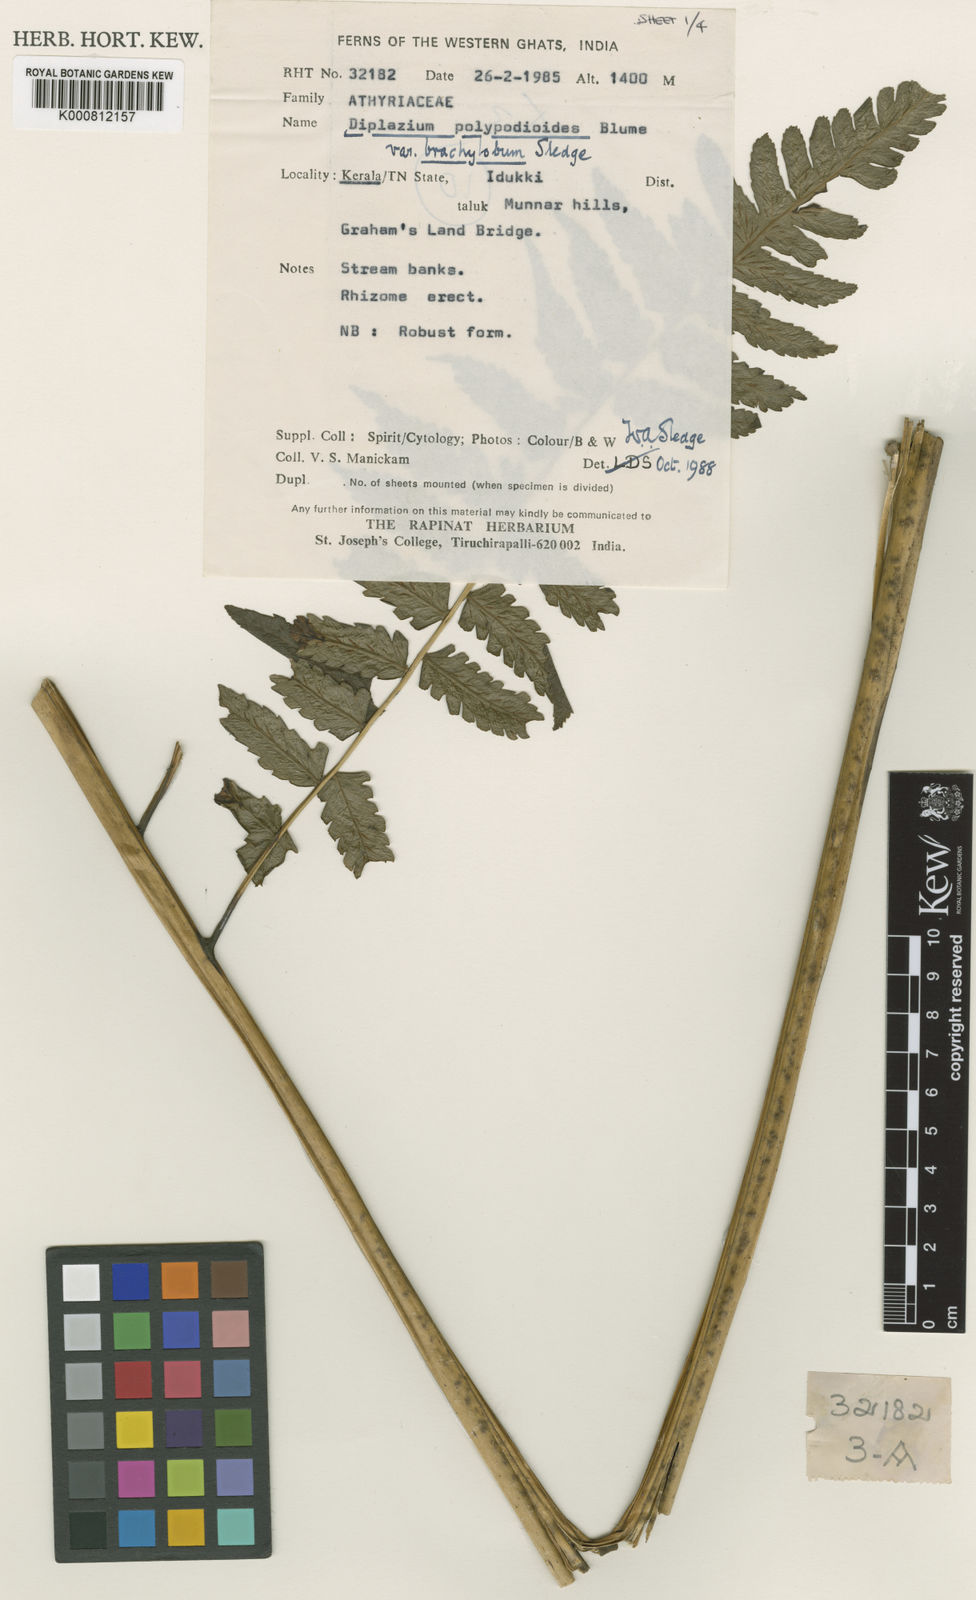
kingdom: Plantae
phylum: Tracheophyta
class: Polypodiopsida
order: Polypodiales
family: Athyriaceae
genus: Diplazium
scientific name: Diplazium polypodioides
